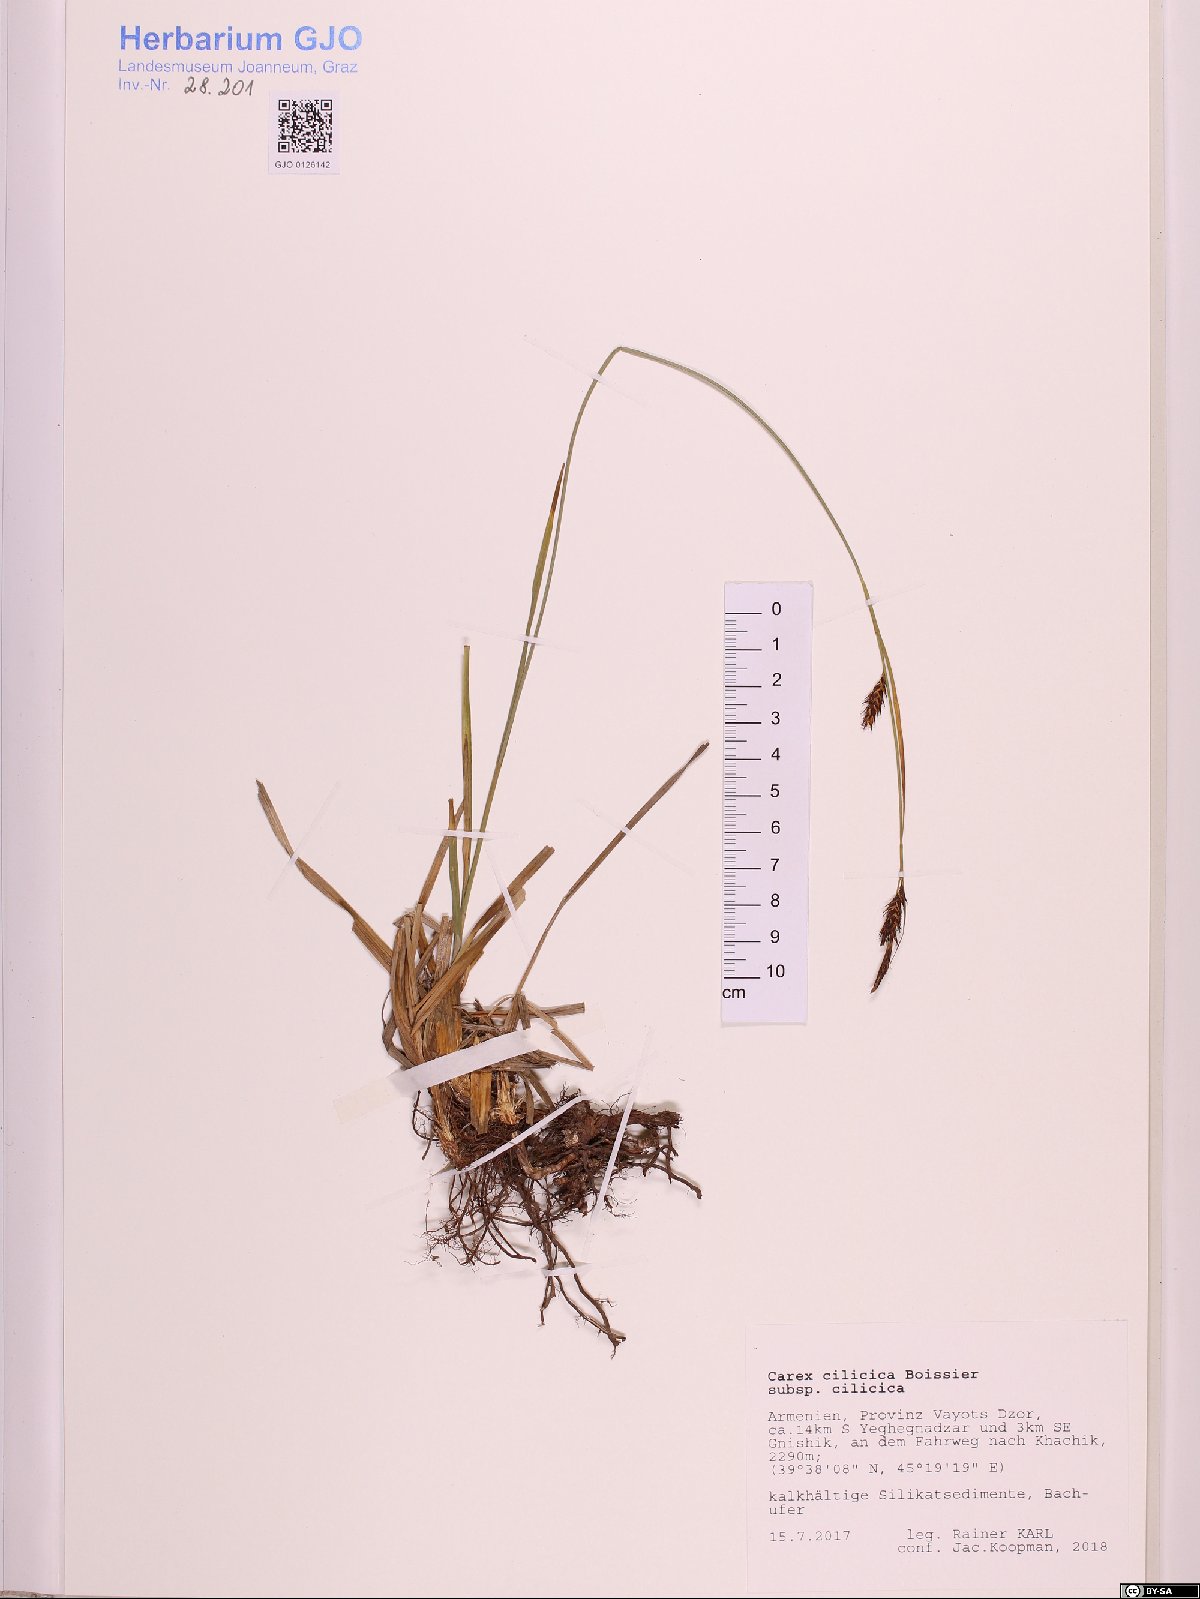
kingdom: Plantae
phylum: Tracheophyta
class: Liliopsida
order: Poales
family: Cyperaceae
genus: Carex
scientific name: Carex cilicica
